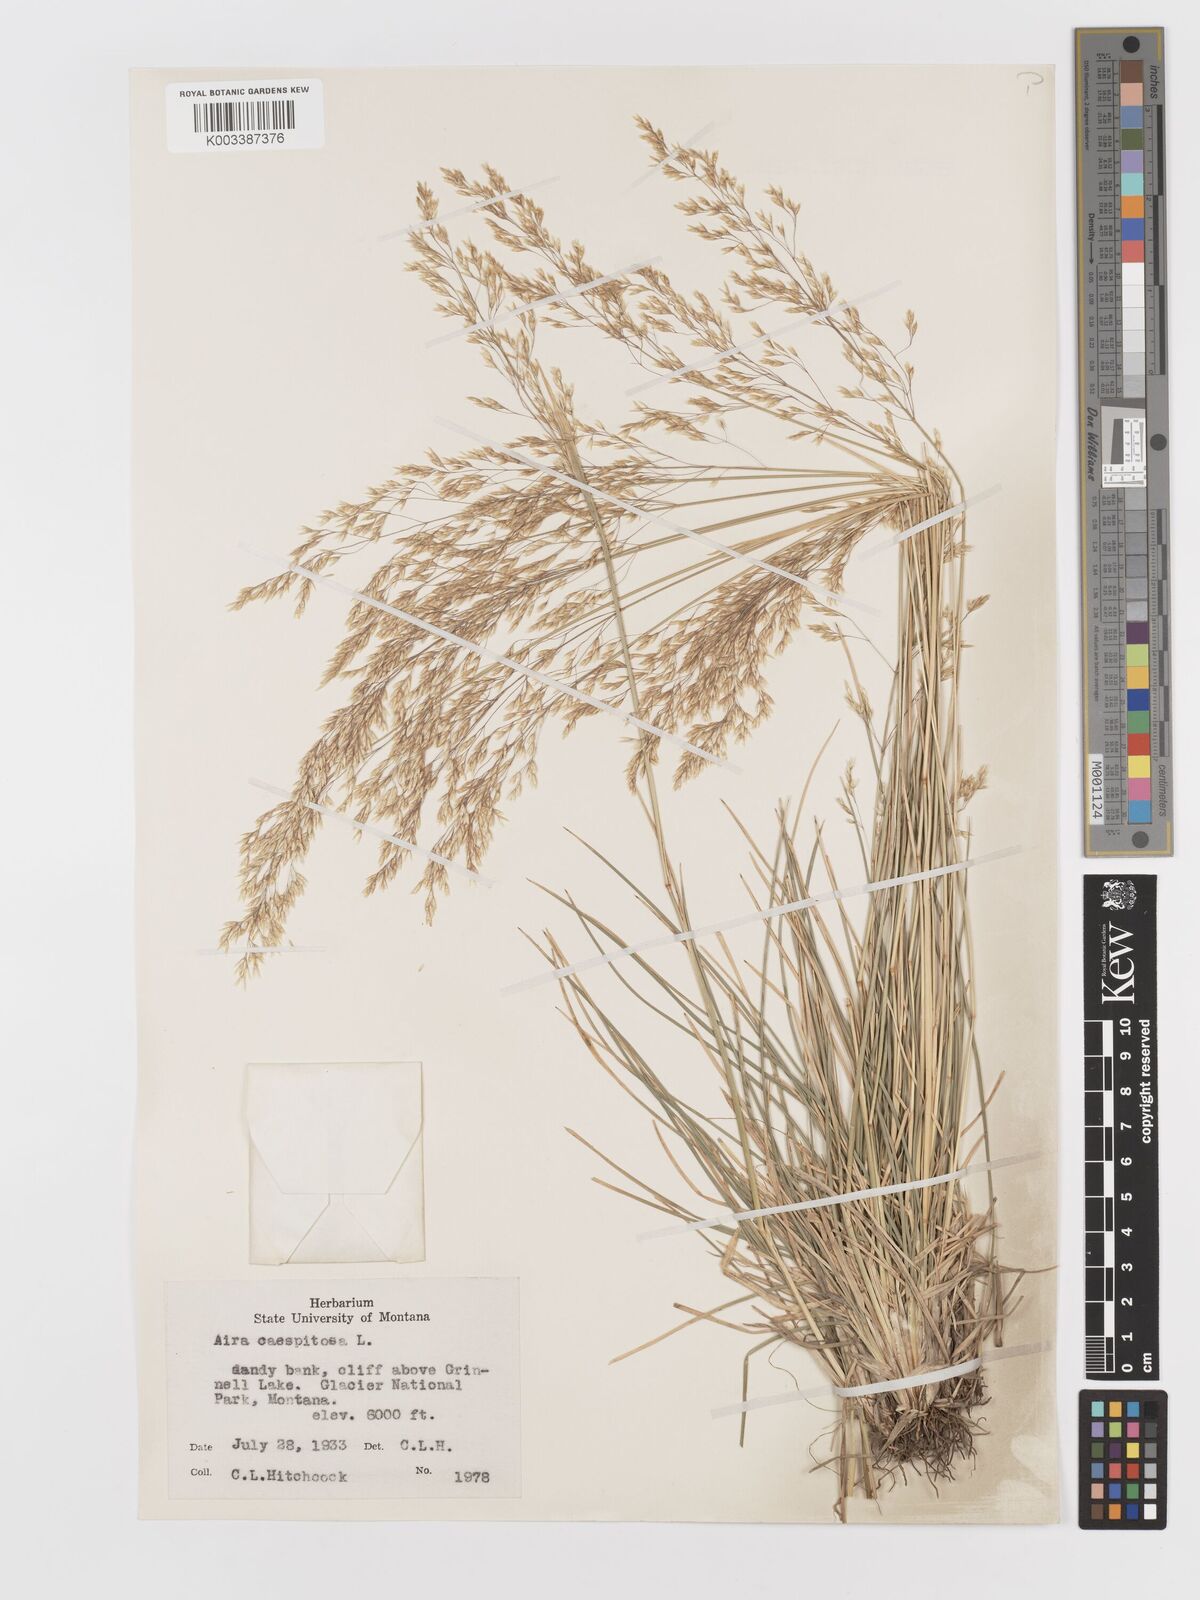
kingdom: Plantae
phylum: Tracheophyta
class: Liliopsida
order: Poales
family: Poaceae
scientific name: Poaceae
